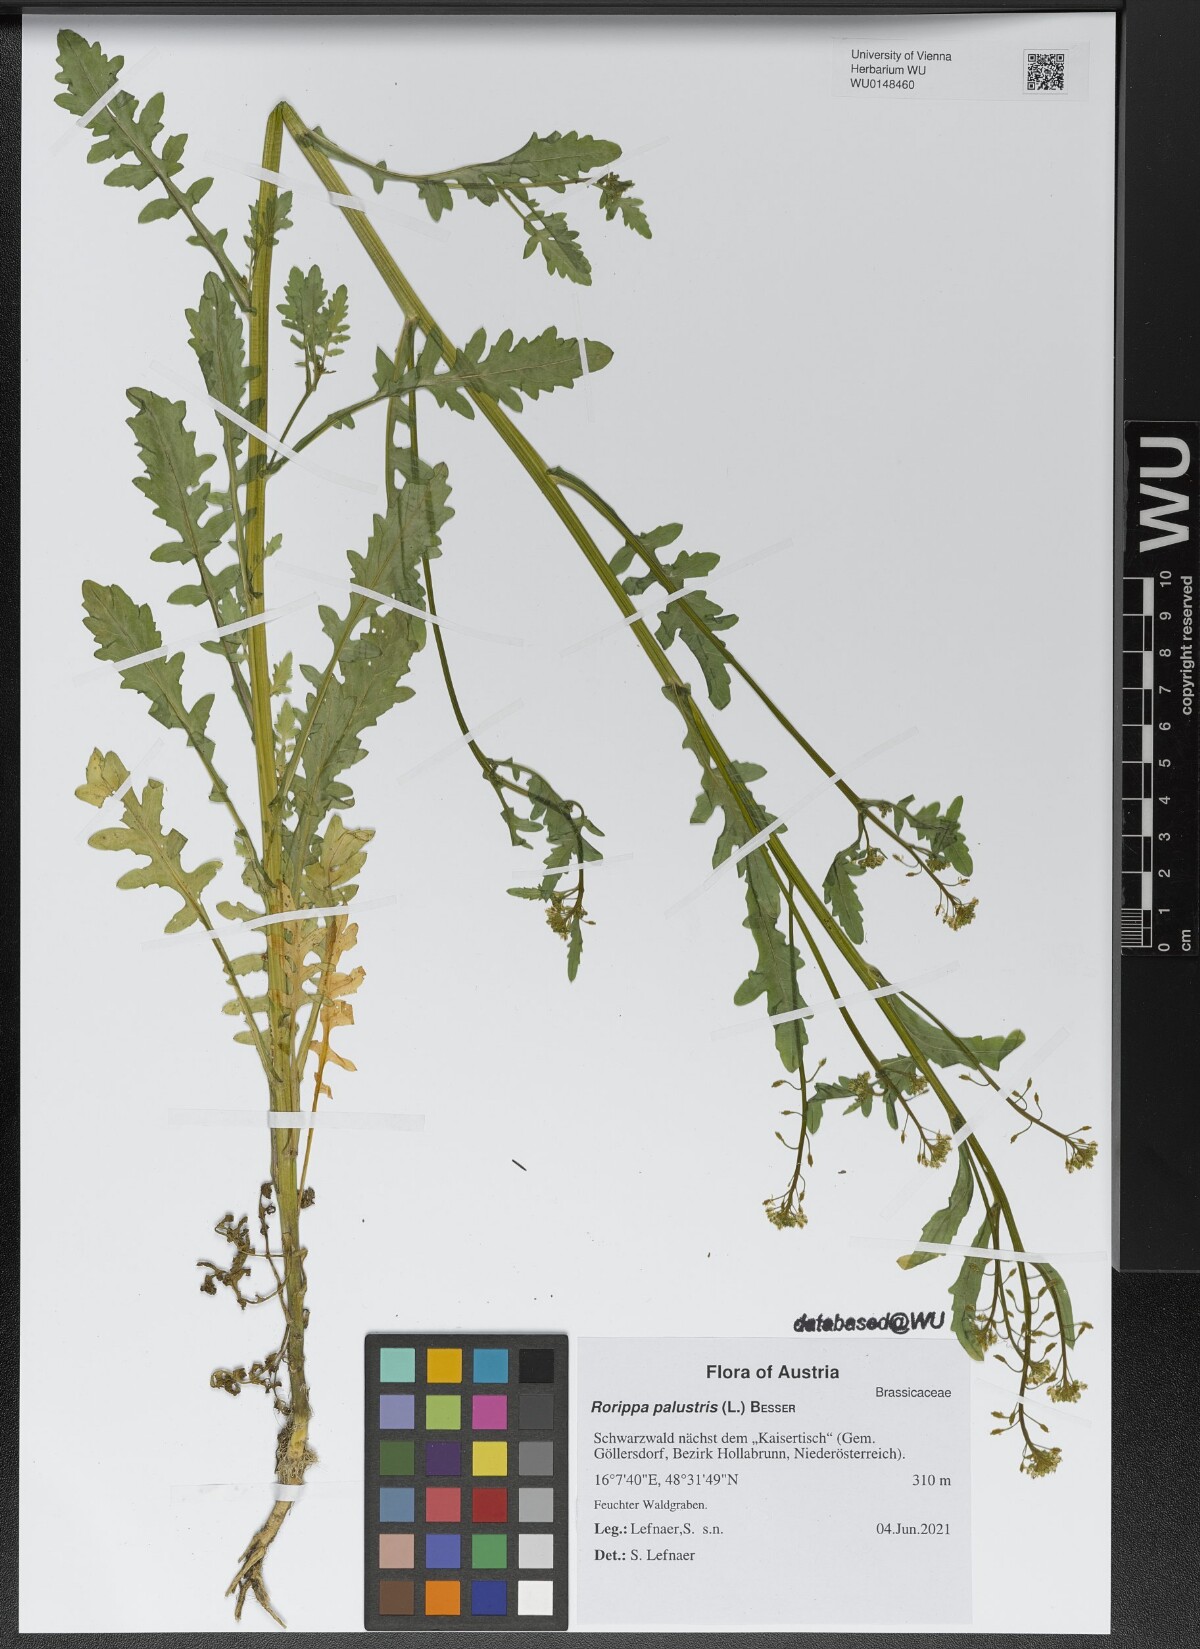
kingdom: Plantae
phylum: Tracheophyta
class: Magnoliopsida
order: Brassicales
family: Brassicaceae
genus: Rorippa
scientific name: Rorippa palustris
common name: Marsh yellow-cress
